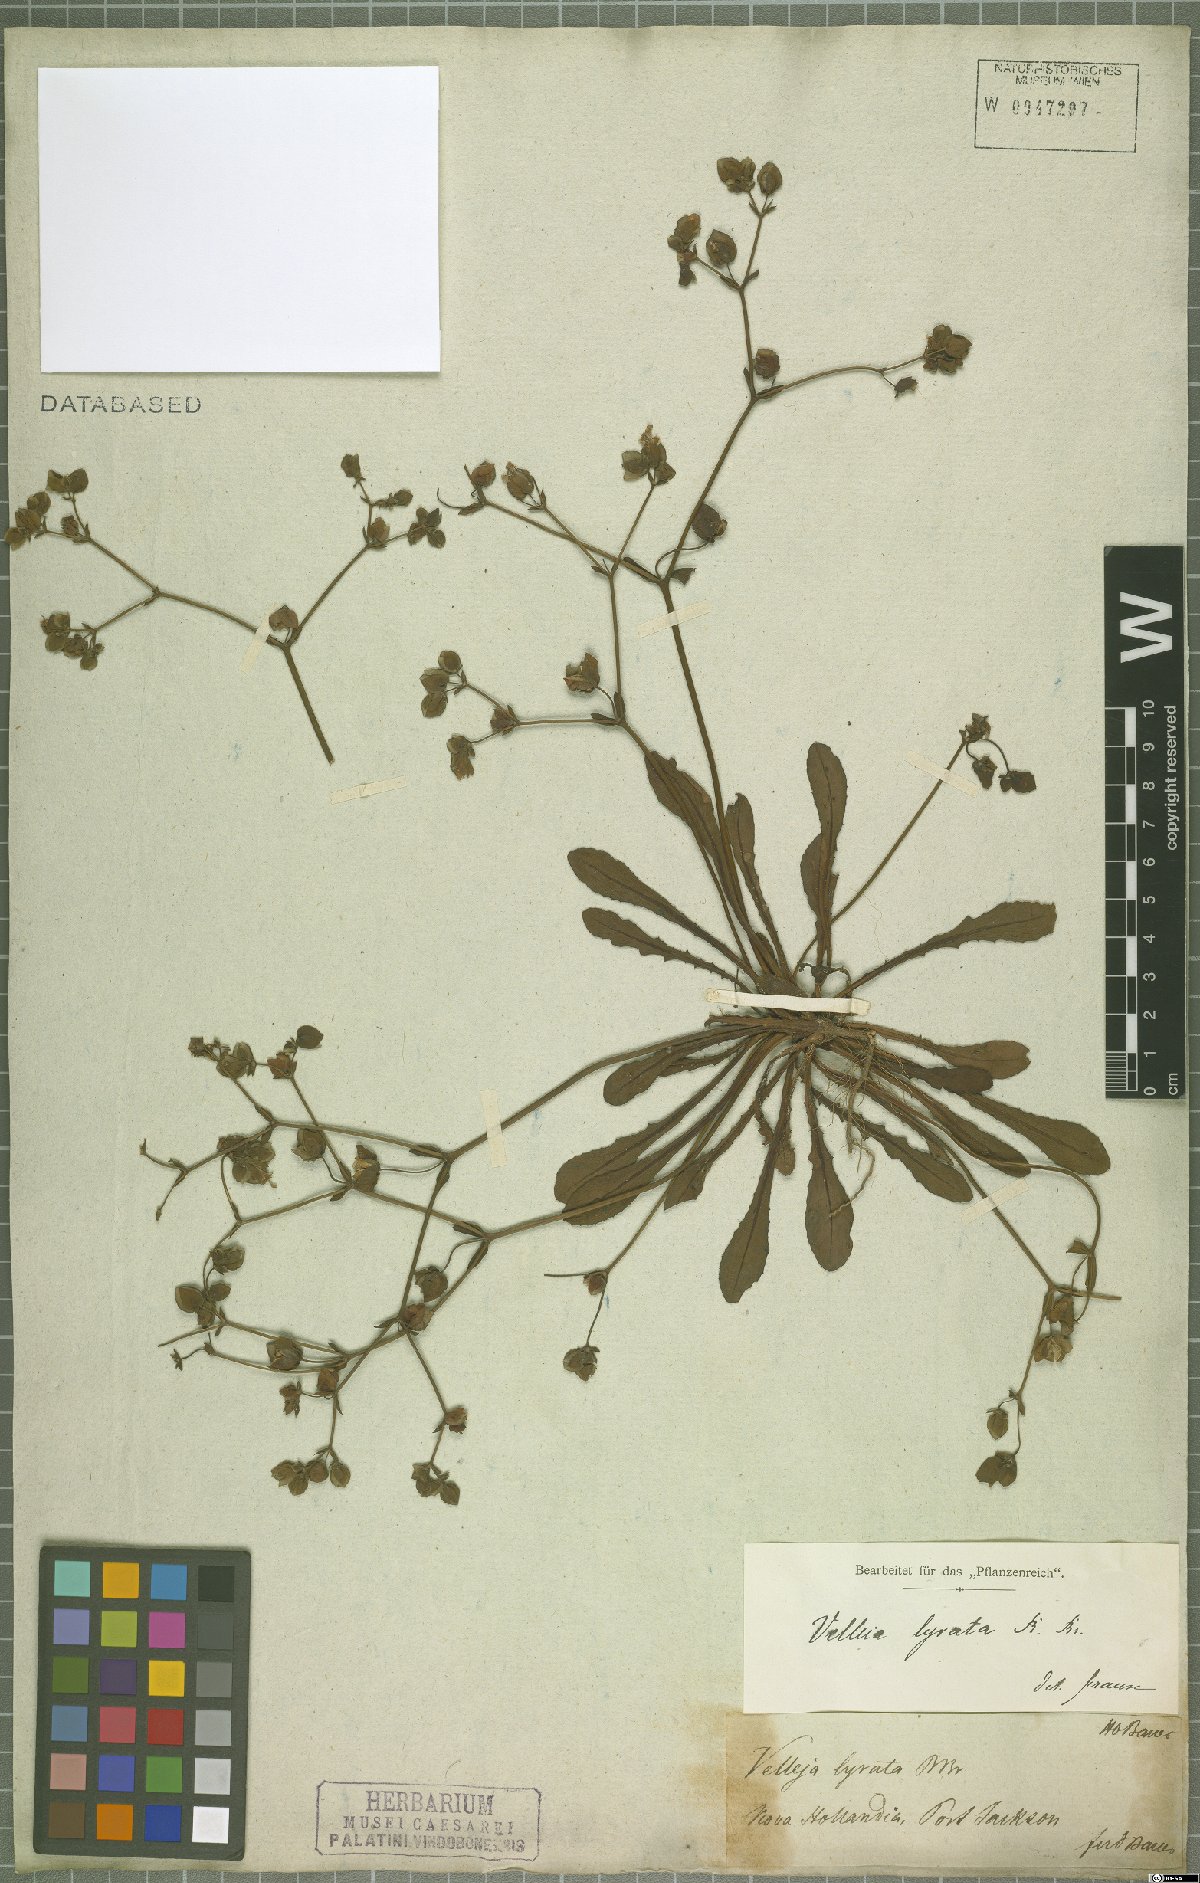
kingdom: Plantae
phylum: Tracheophyta
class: Magnoliopsida
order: Asterales
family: Goodeniaceae
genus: Goodenia
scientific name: Goodenia caroliniana
